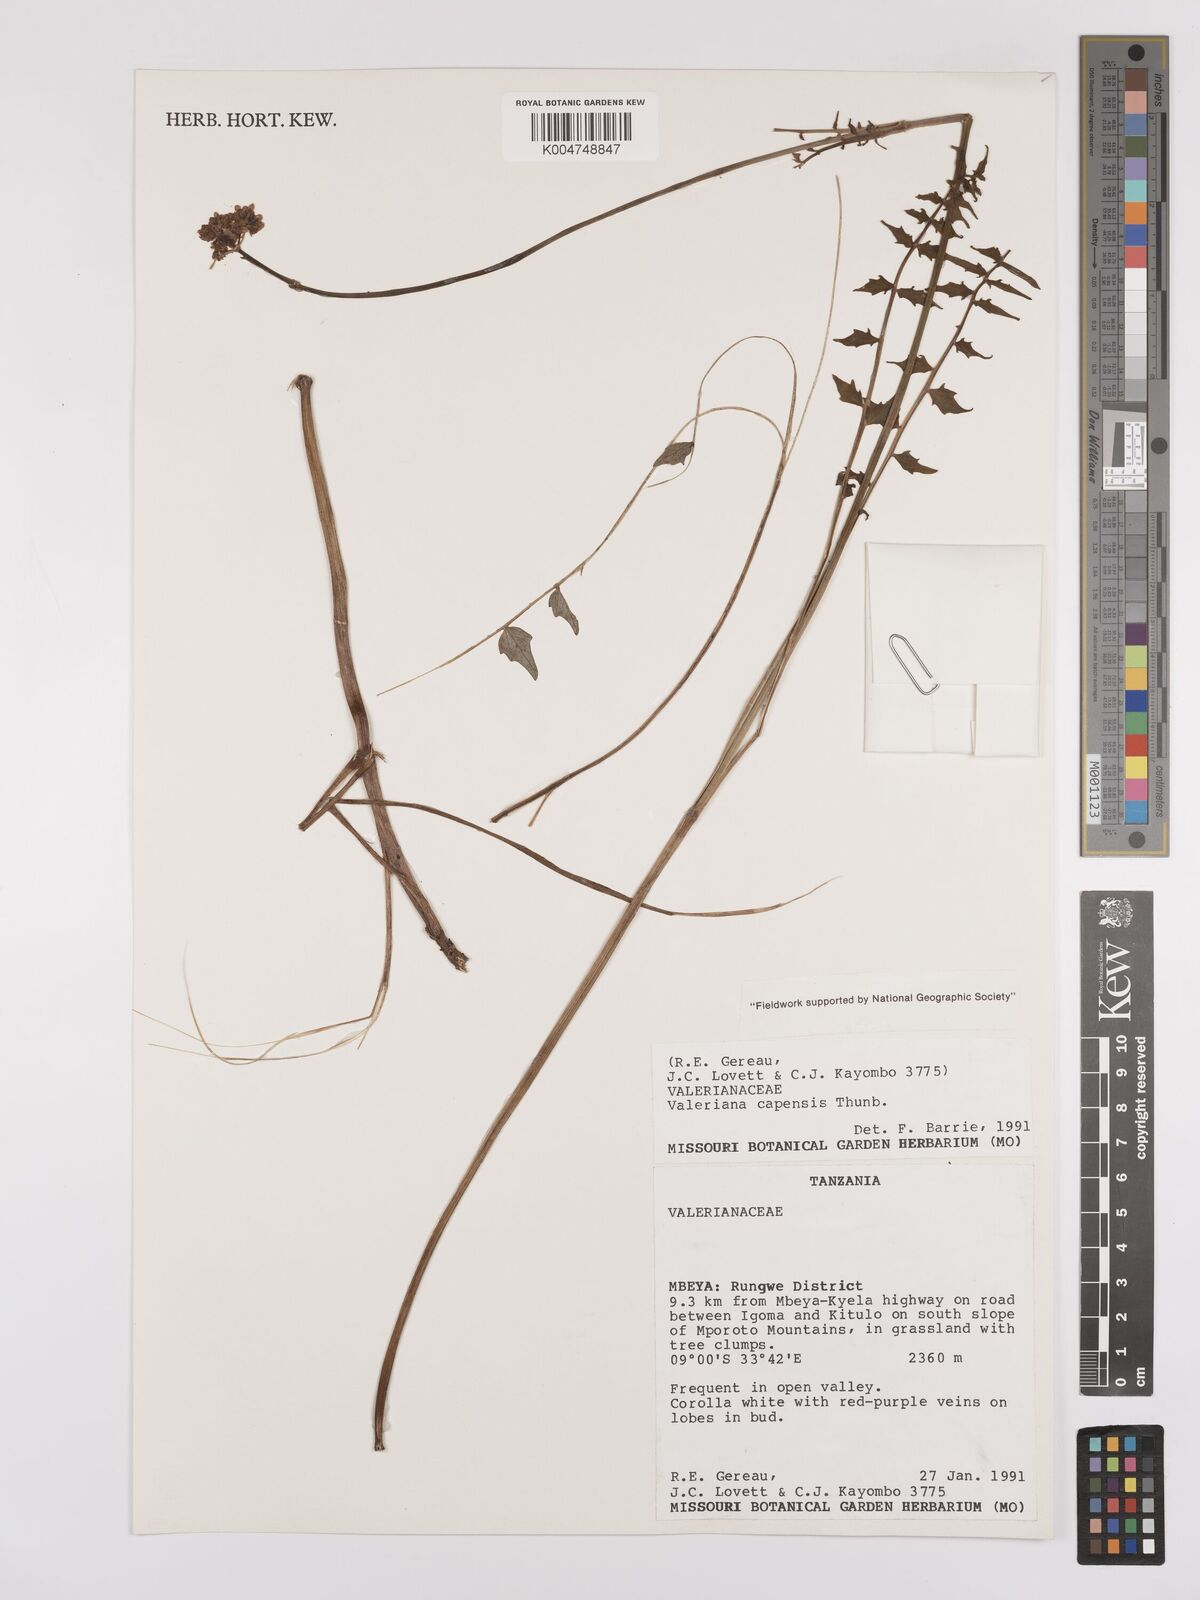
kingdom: Plantae
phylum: Tracheophyta
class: Magnoliopsida
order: Dipsacales
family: Caprifoliaceae
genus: Valeriana
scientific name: Valeriana capensis
